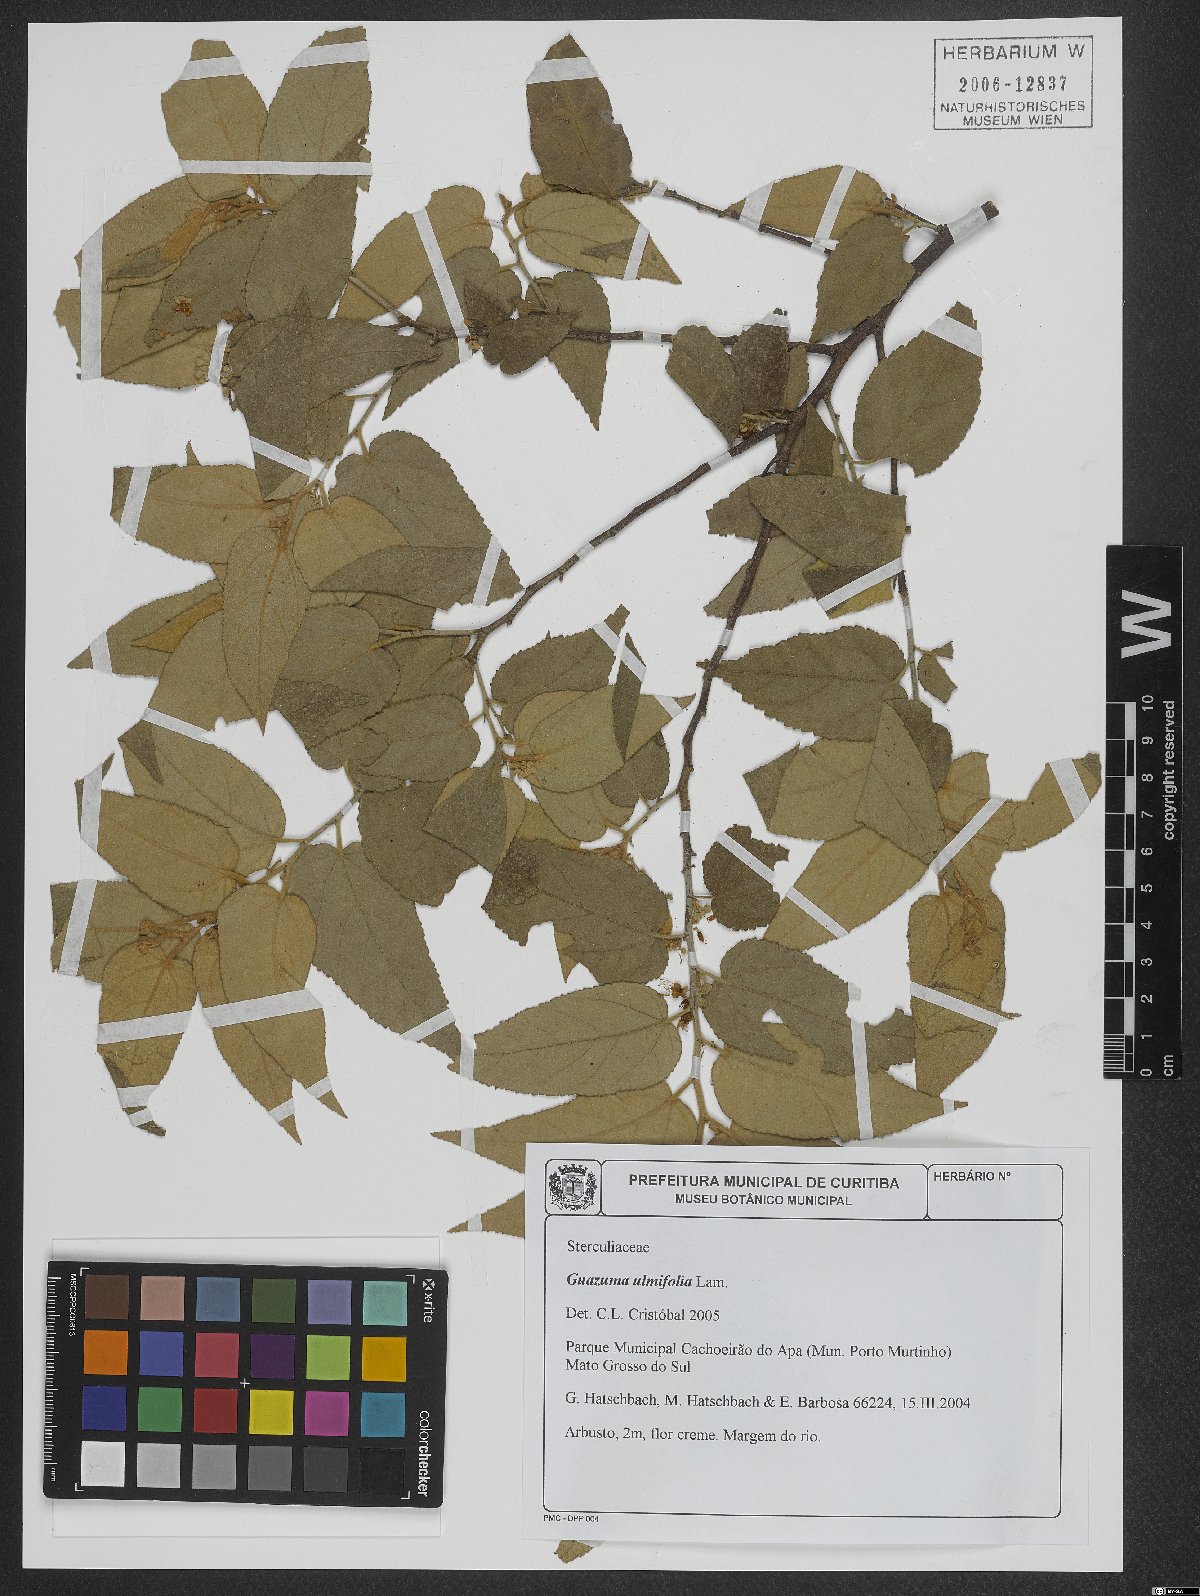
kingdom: Plantae
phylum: Tracheophyta
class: Magnoliopsida
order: Malvales
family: Malvaceae
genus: Guazuma
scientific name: Guazuma ulmifolia
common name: Bastard-cedar
